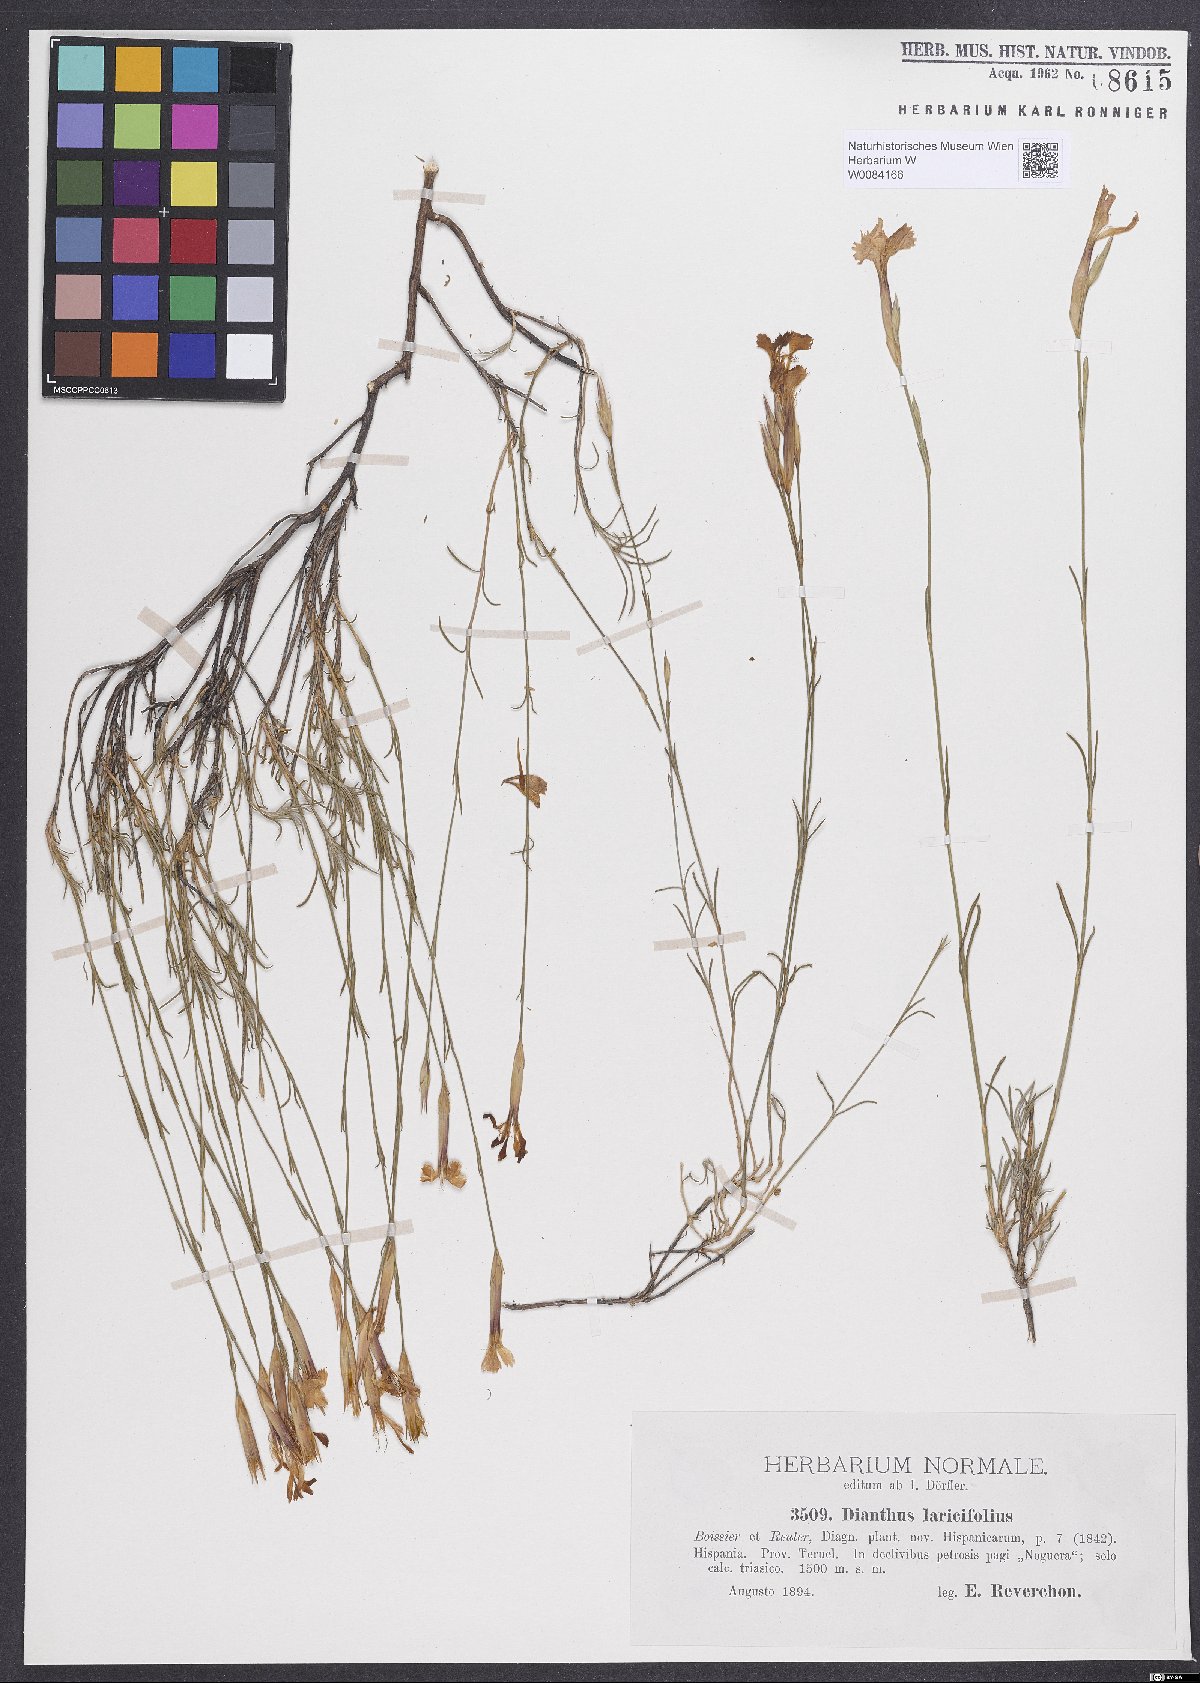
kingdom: Plantae
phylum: Tracheophyta
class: Magnoliopsida
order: Caryophyllales
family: Caryophyllaceae
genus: Dianthus
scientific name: Dianthus laricifolius
